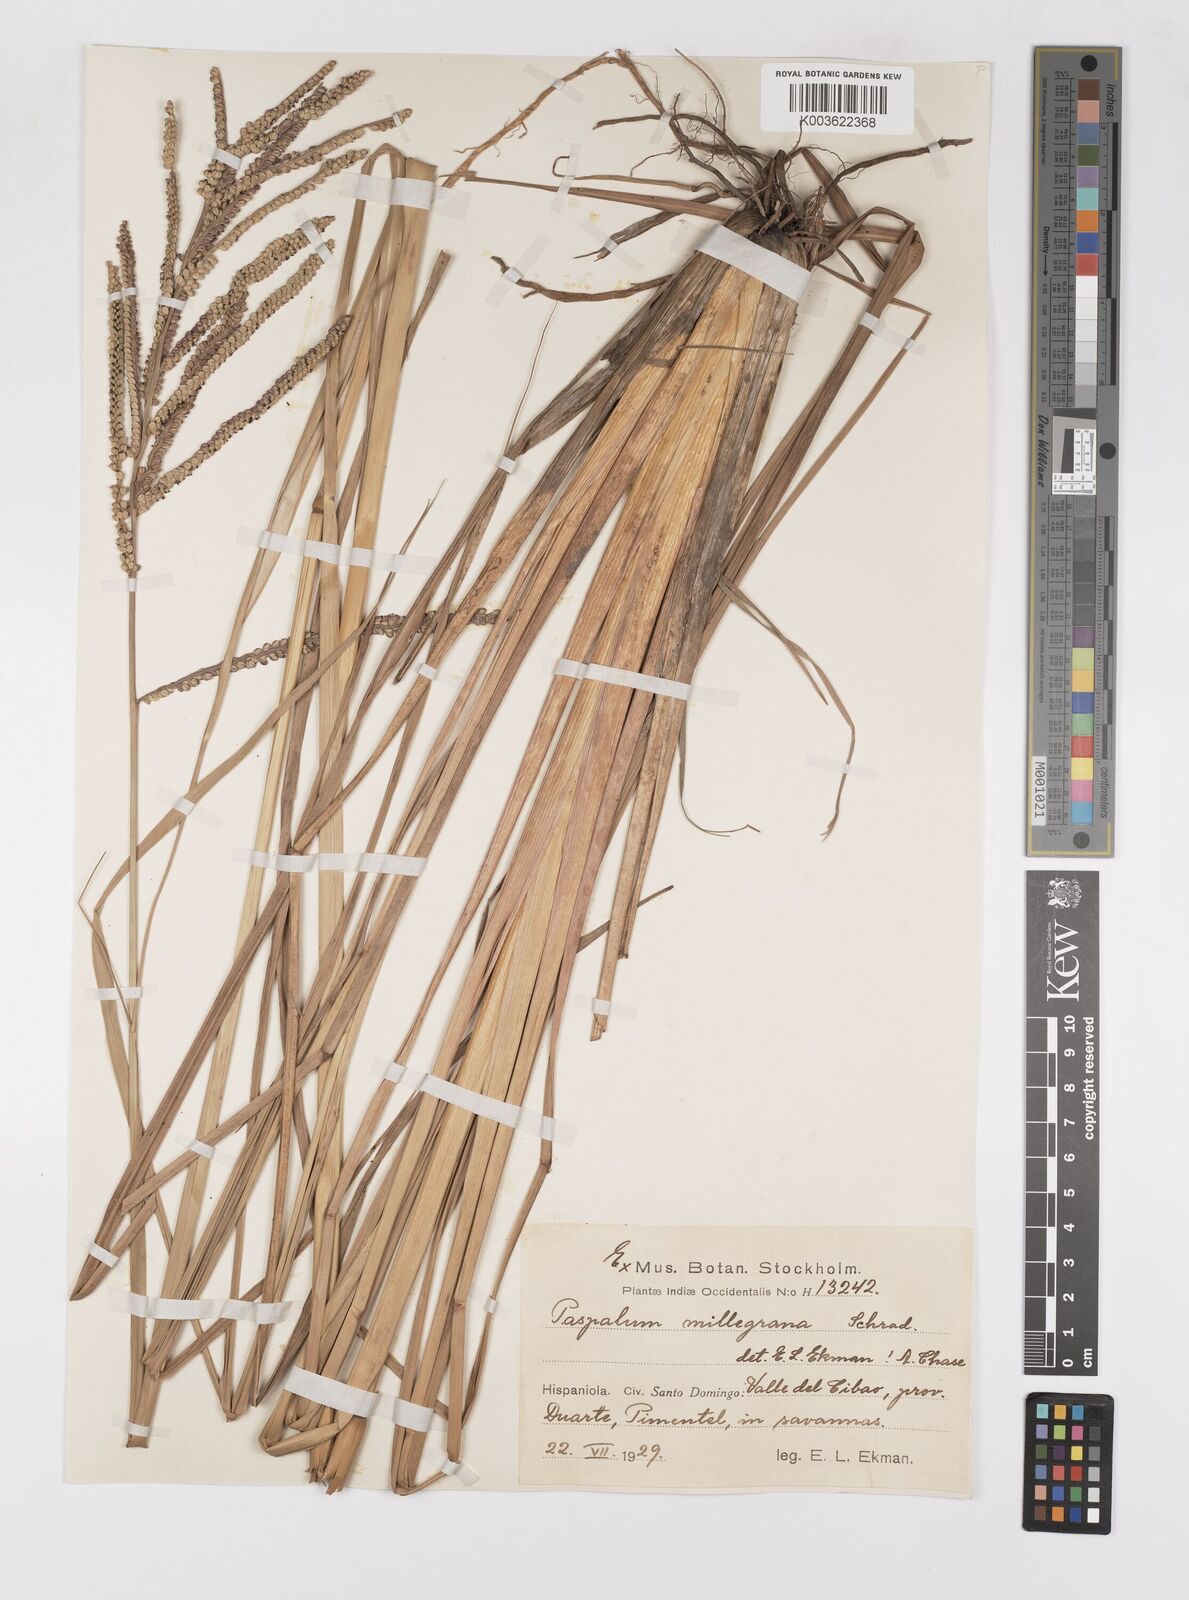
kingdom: Plantae
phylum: Tracheophyta
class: Liliopsida
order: Poales
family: Poaceae
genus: Paspalum
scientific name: Paspalum millegranum
